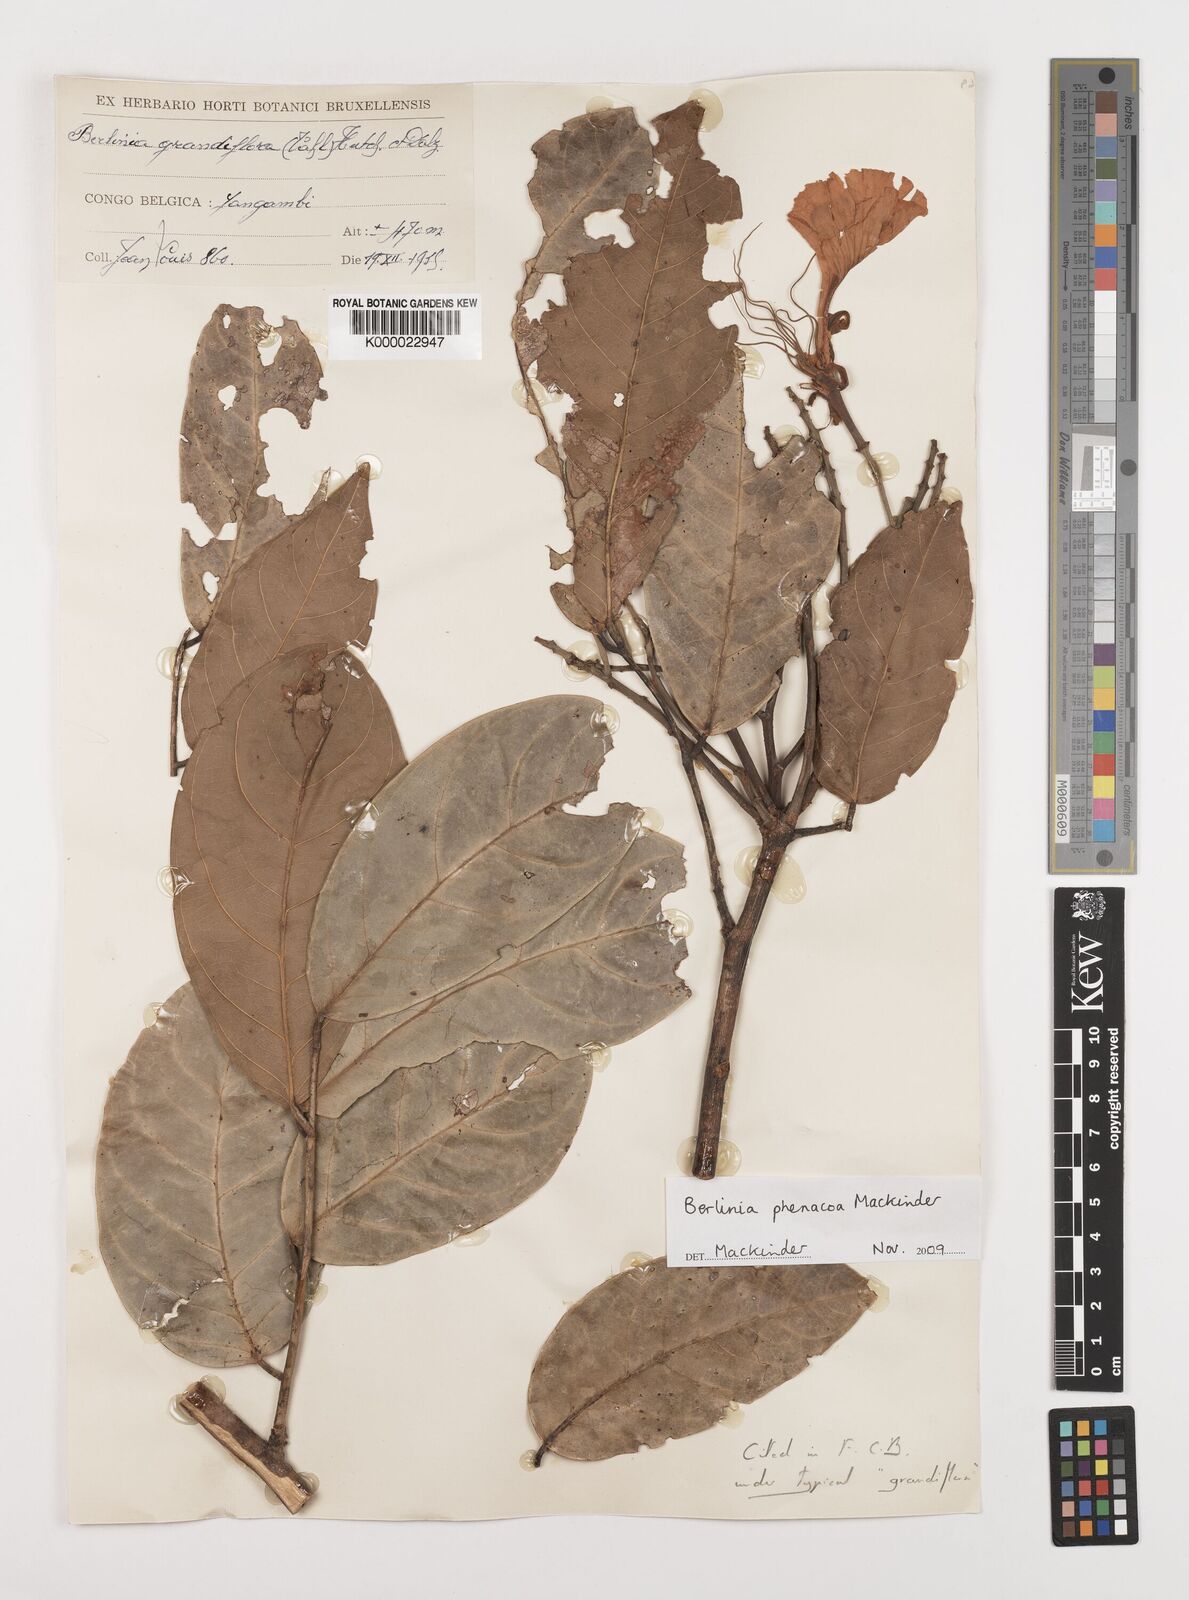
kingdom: Plantae
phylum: Tracheophyta
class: Magnoliopsida
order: Fabales
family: Fabaceae
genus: Berlinia
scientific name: Berlinia phenacoa
